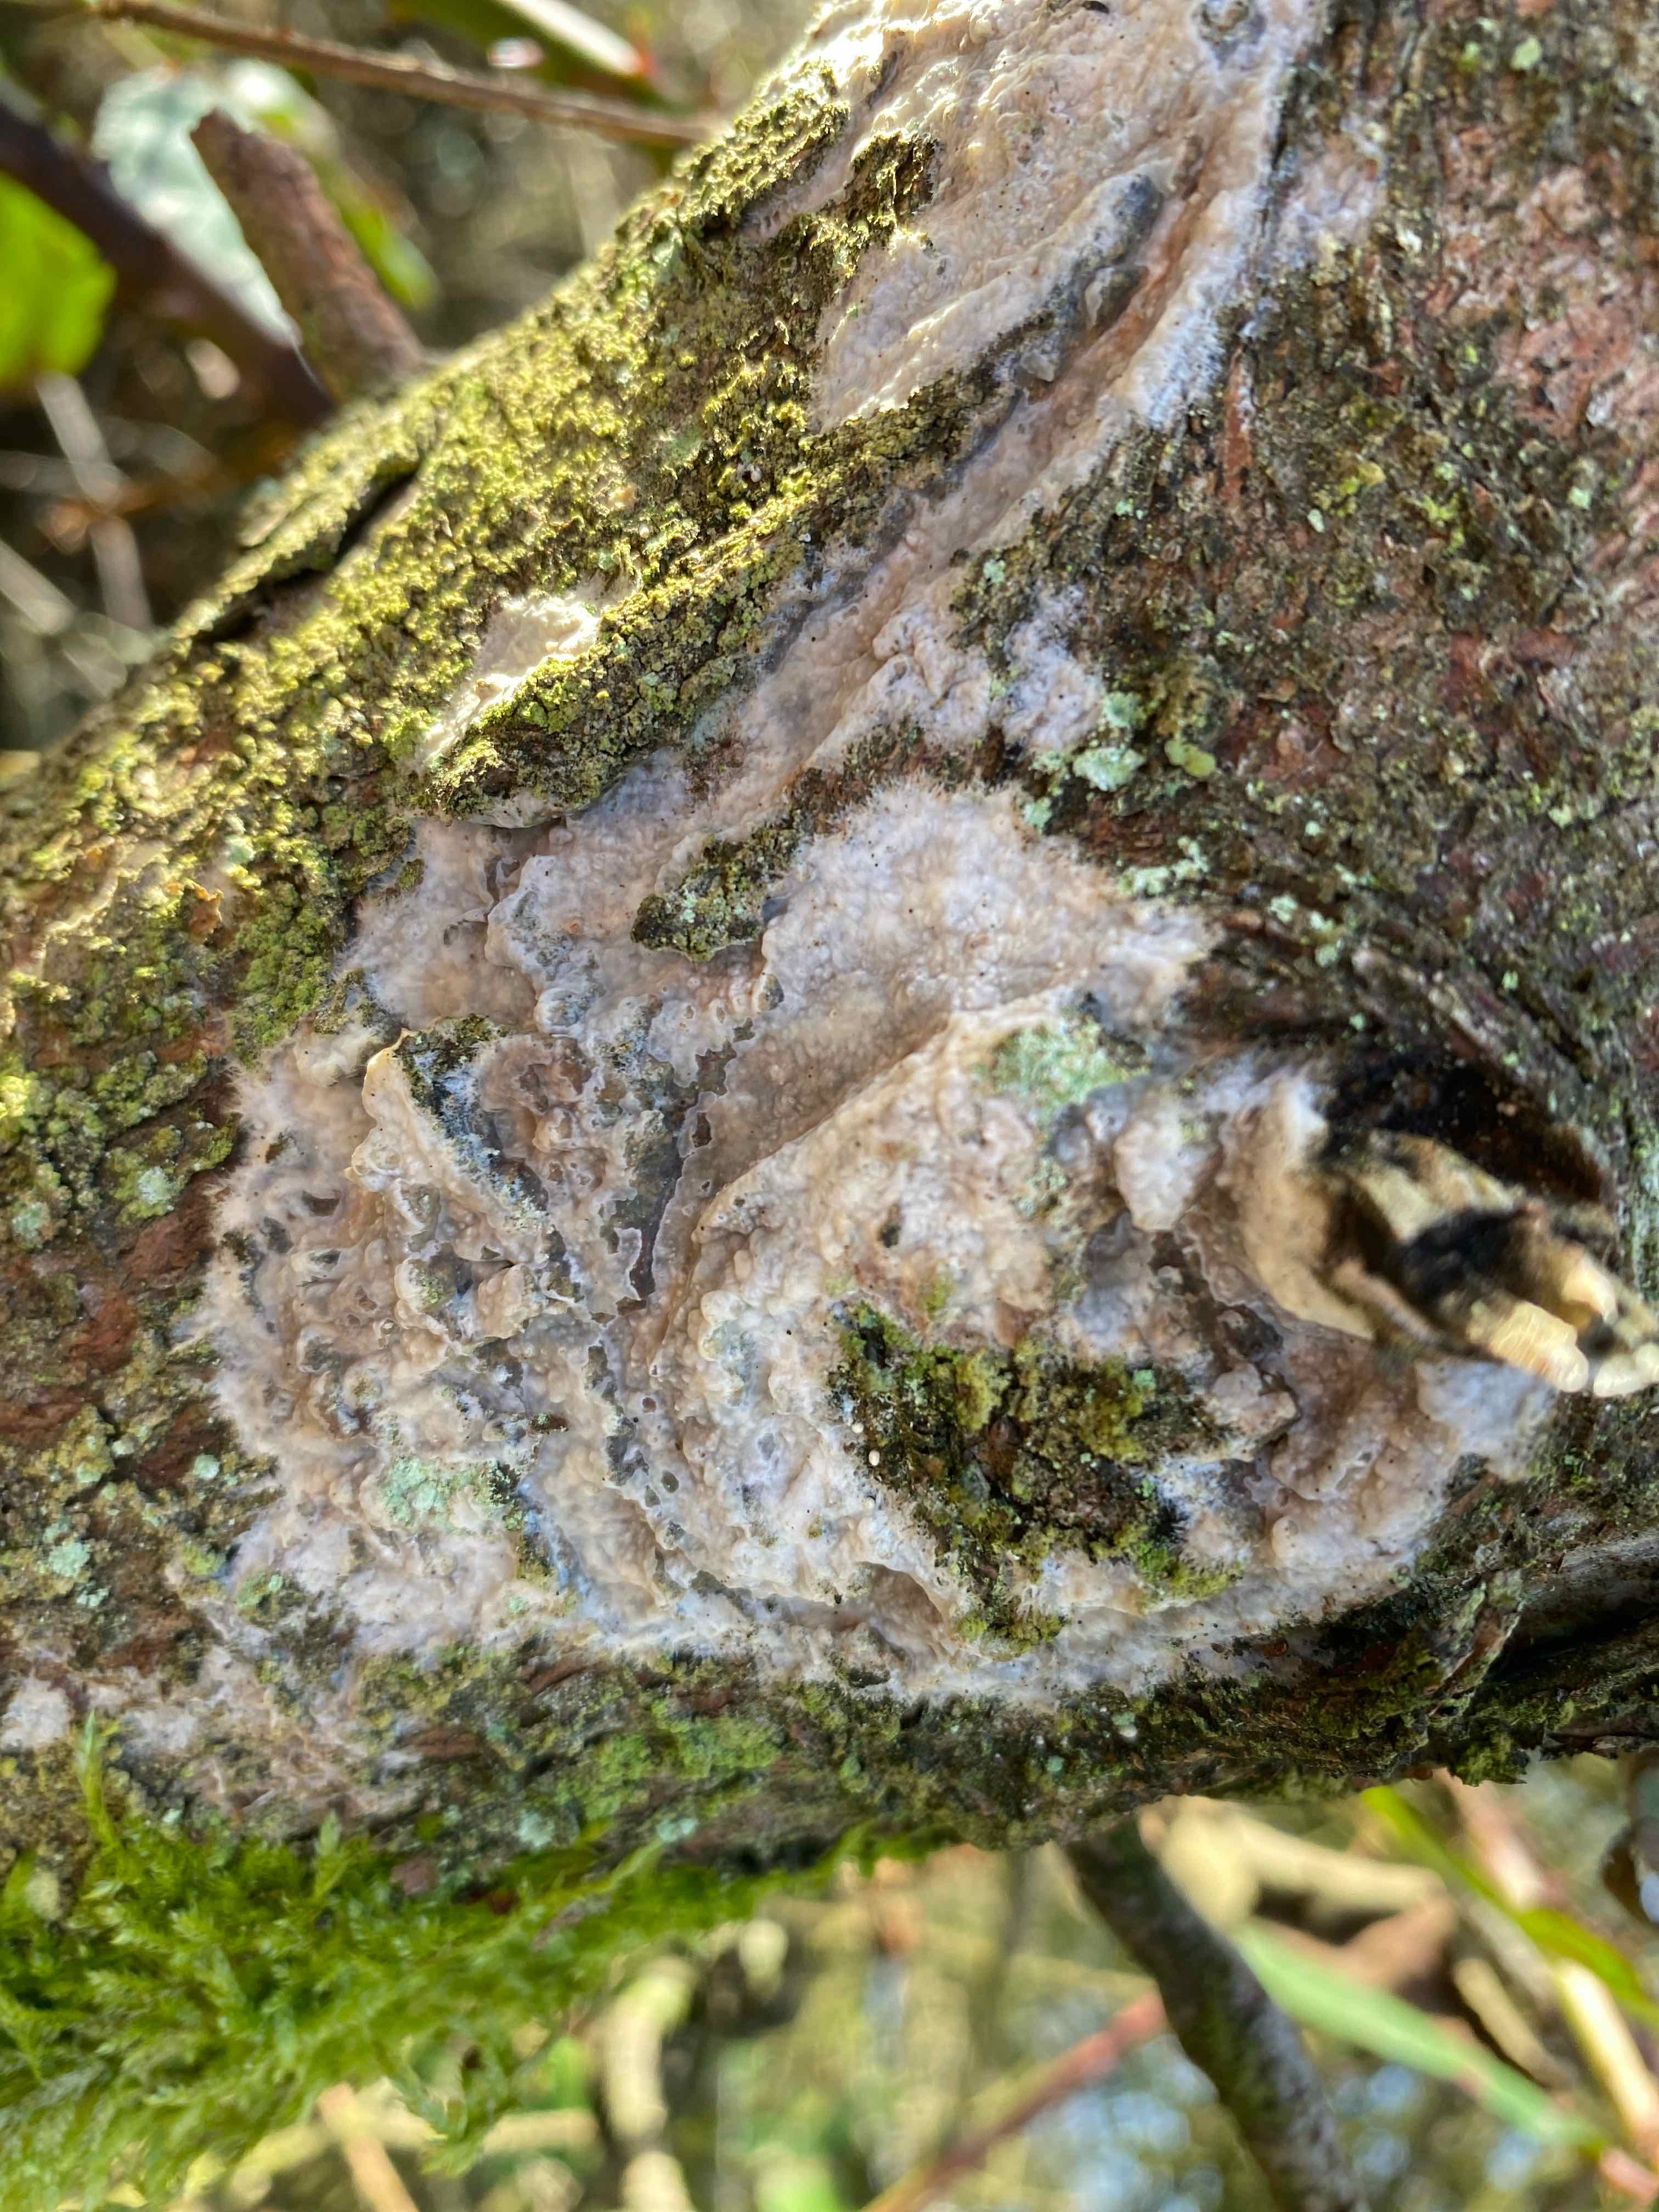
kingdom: Fungi
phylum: Basidiomycota
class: Agaricomycetes
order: Polyporales
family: Phanerochaetaceae
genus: Phlebiopsis
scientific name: Phlebiopsis gigantea
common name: kæmpebarksvamp
